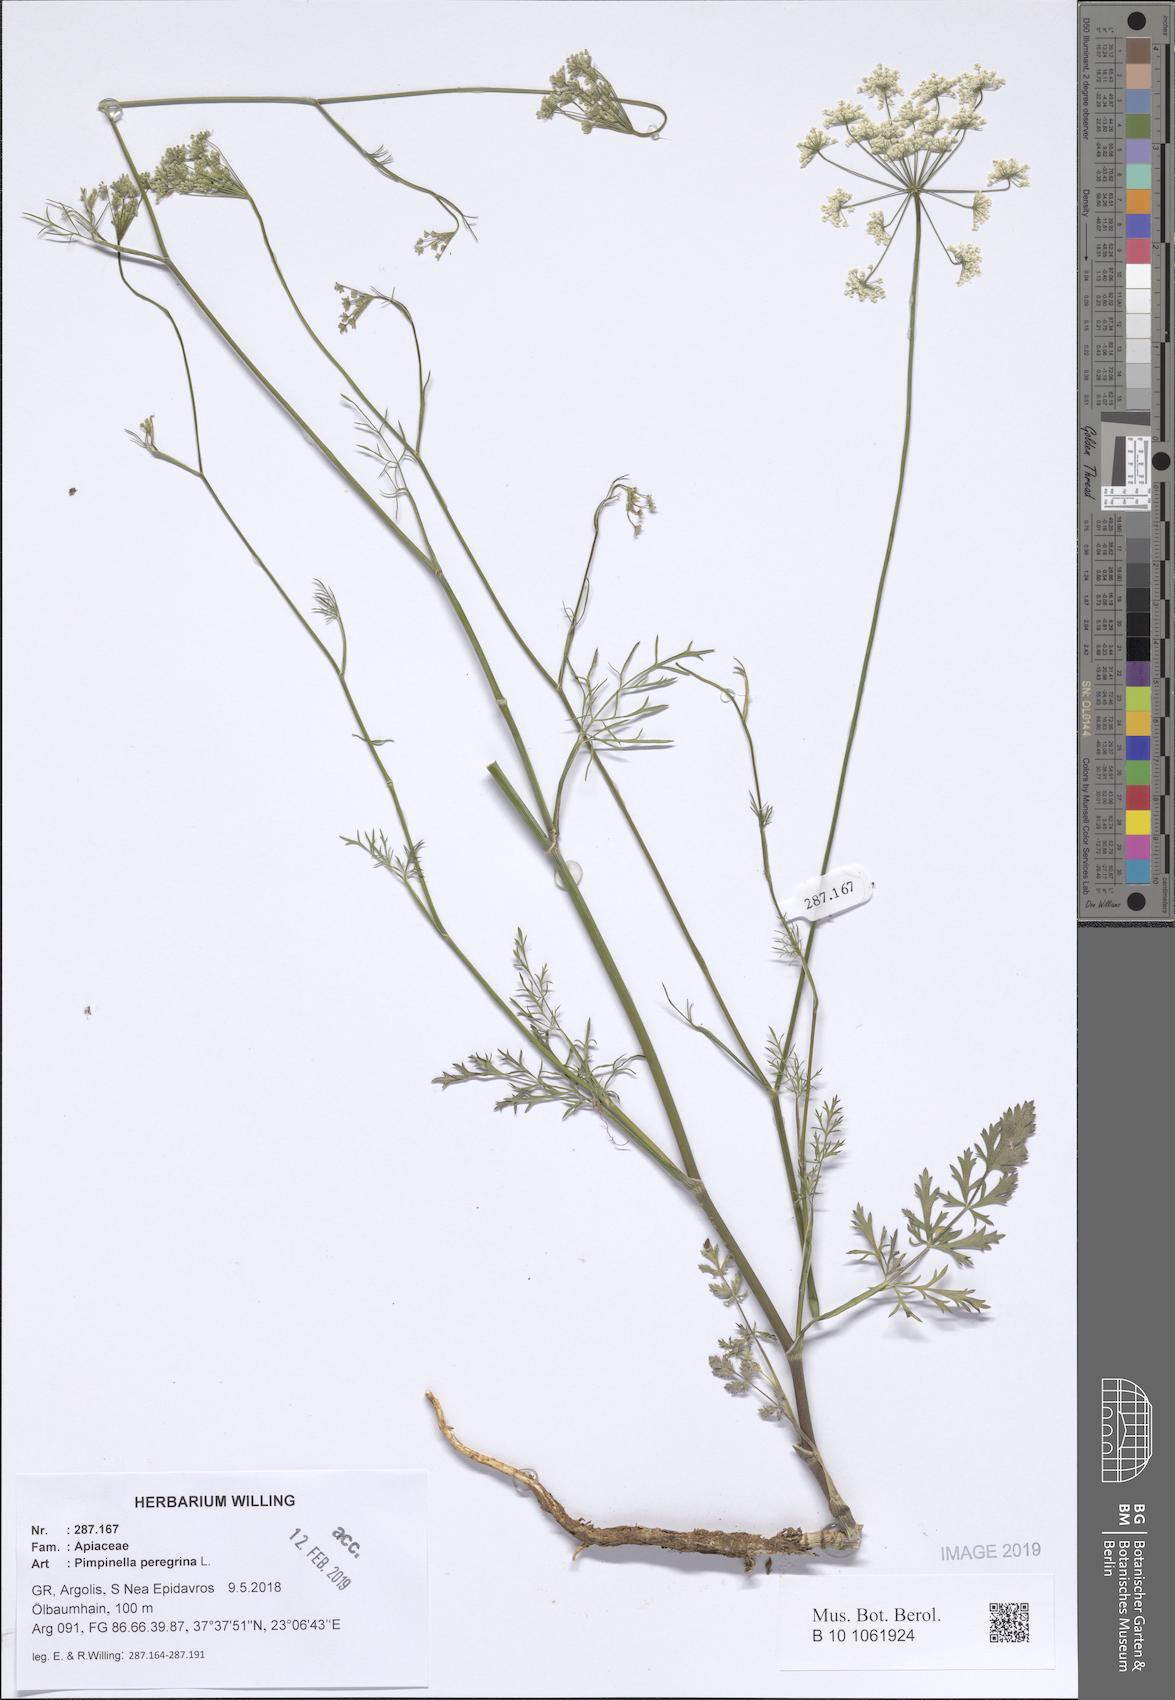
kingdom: Plantae
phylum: Tracheophyta
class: Magnoliopsida
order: Apiales
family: Apiaceae
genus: Pimpinella
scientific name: Pimpinella peregrina
